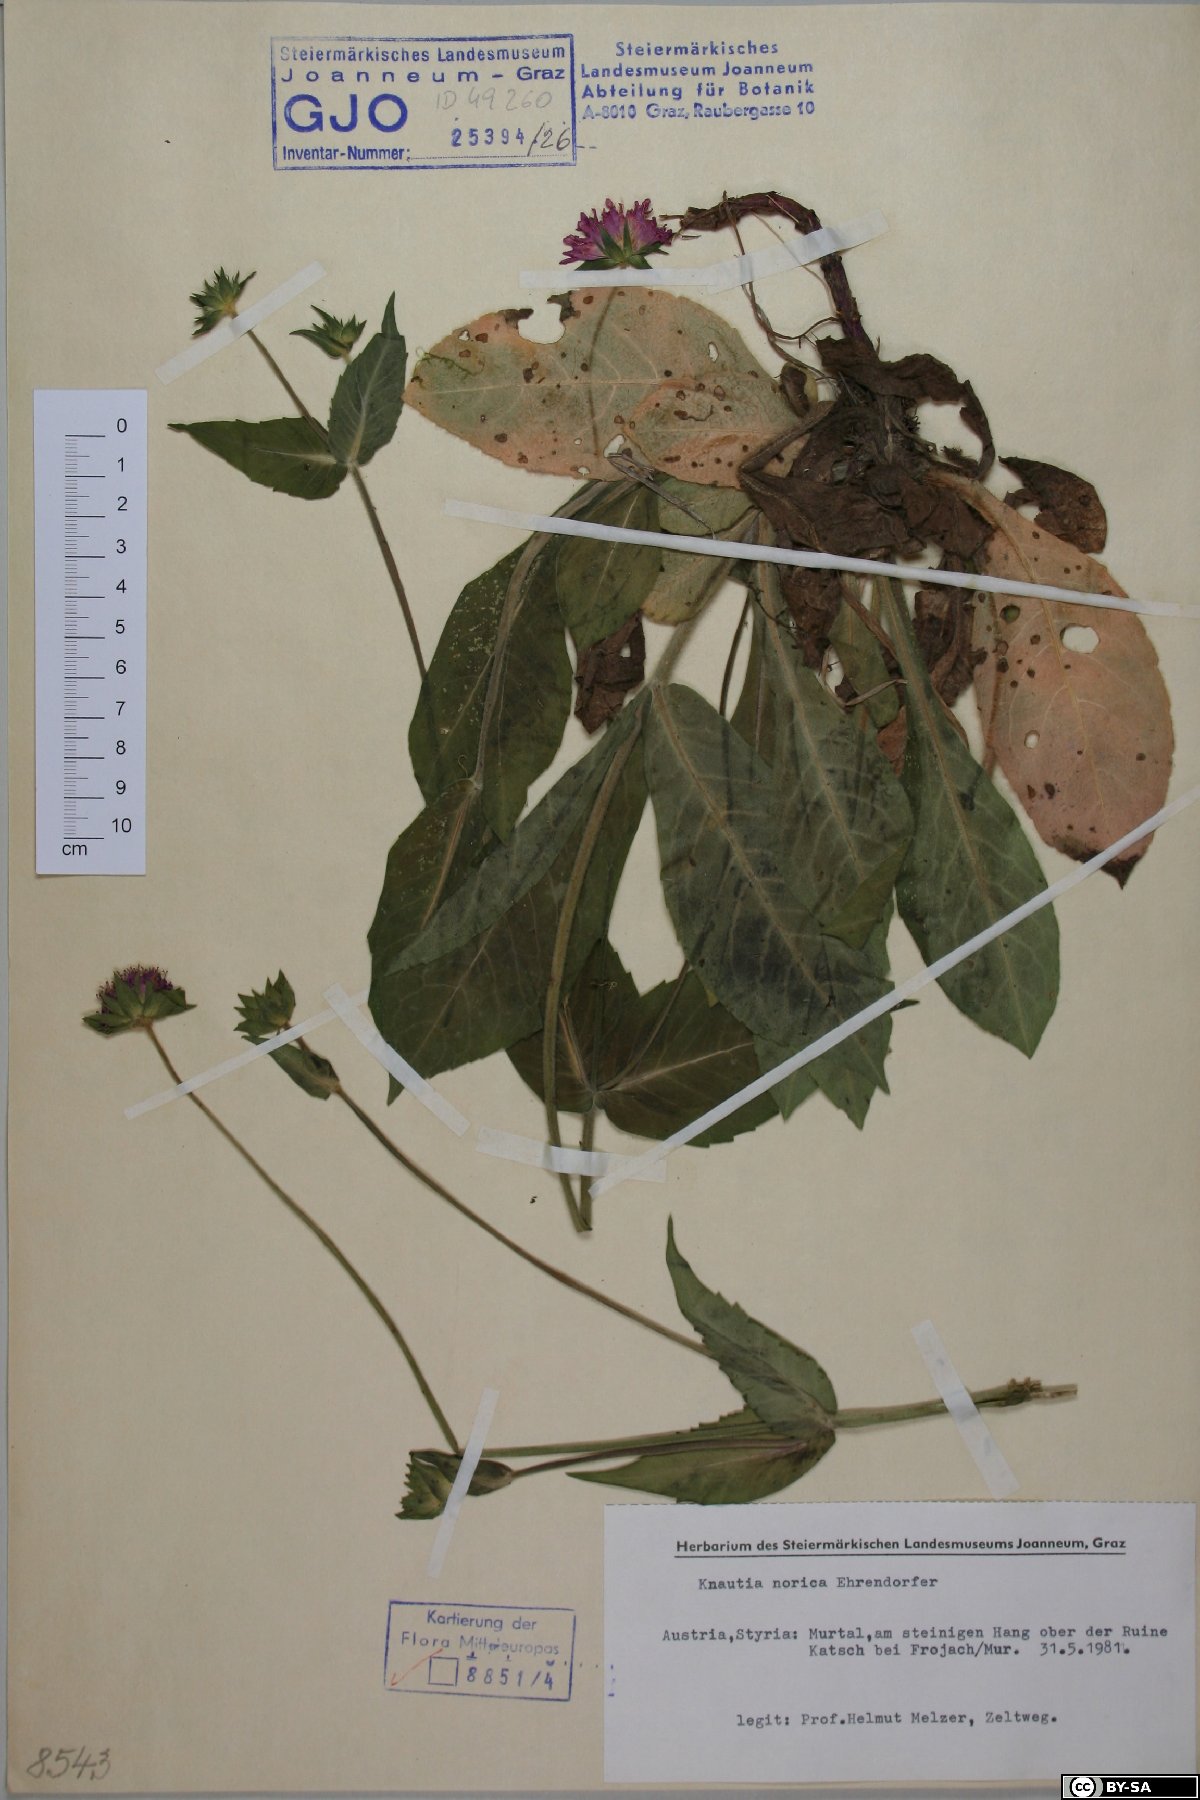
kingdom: Plantae
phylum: Tracheophyta
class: Magnoliopsida
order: Dipsacales
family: Caprifoliaceae
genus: Knautia
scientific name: Knautia norica
